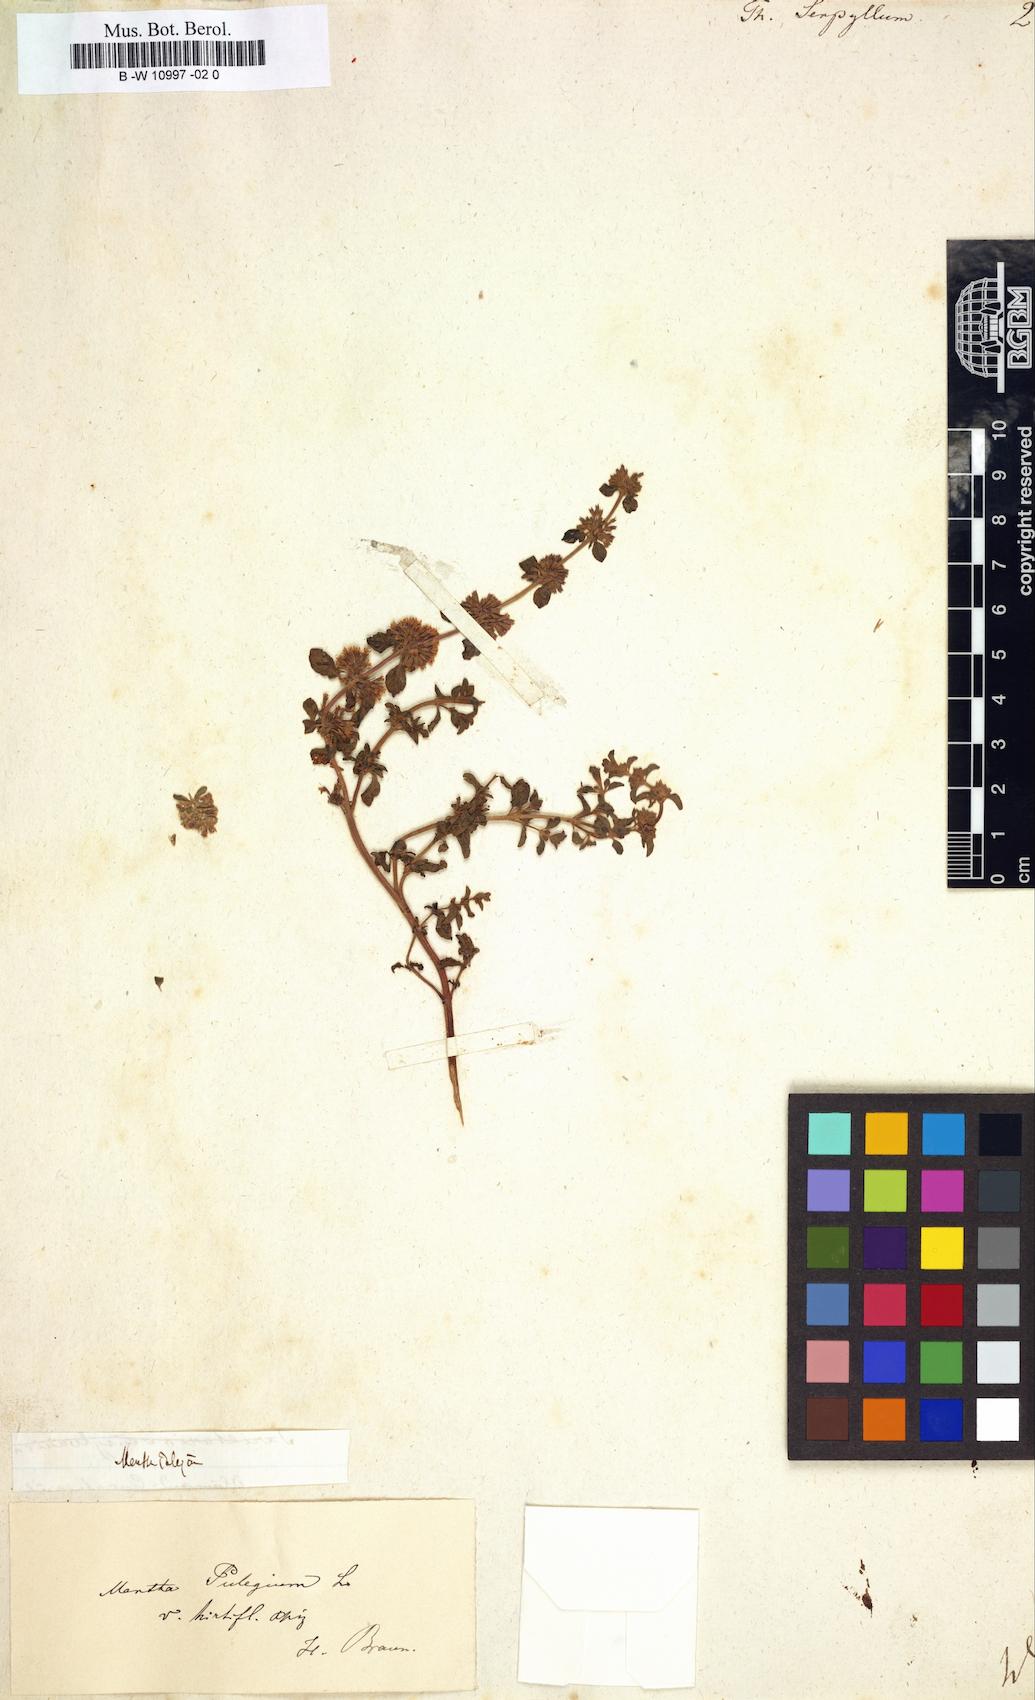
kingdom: Plantae
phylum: Tracheophyta
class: Magnoliopsida
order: Lamiales
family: Lamiaceae
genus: Thymus
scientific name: Thymus serpyllum
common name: Breckland thyme
